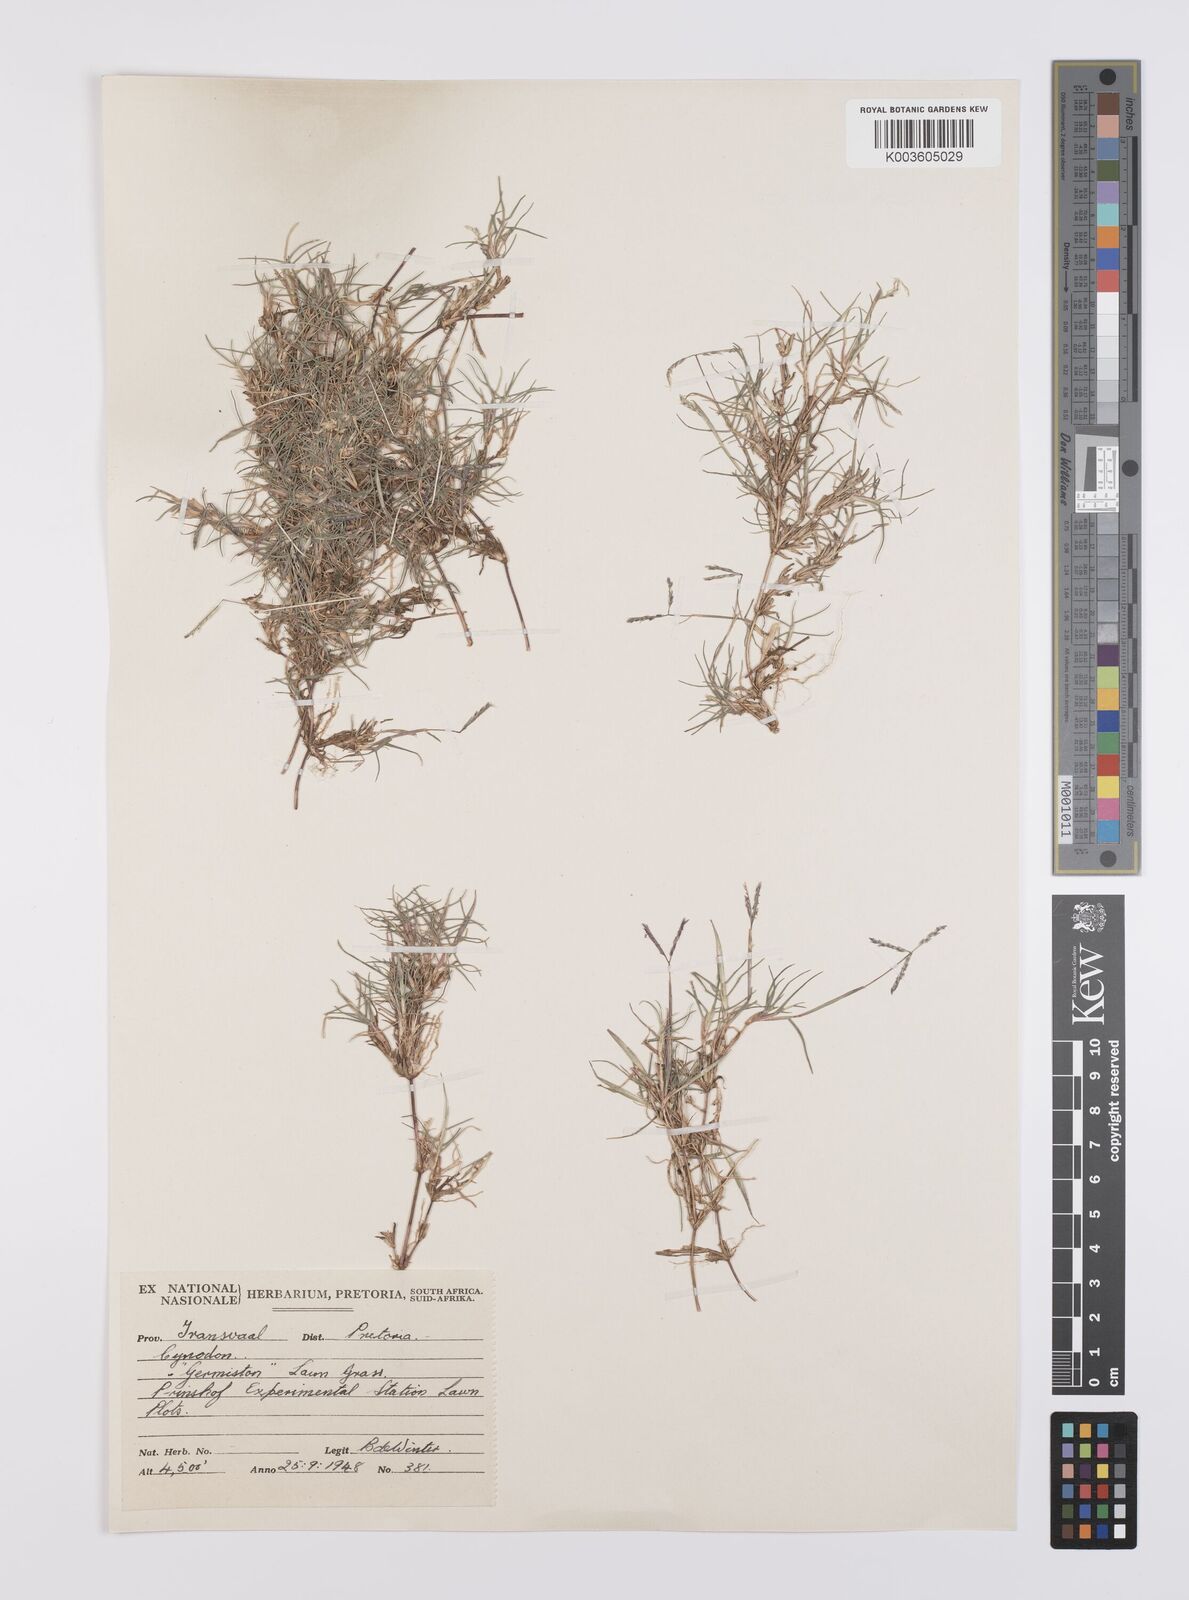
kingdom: Plantae
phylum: Tracheophyta
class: Liliopsida
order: Poales
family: Poaceae
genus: Cynodon
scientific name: Cynodon transvaalensis
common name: African bermuda grass
